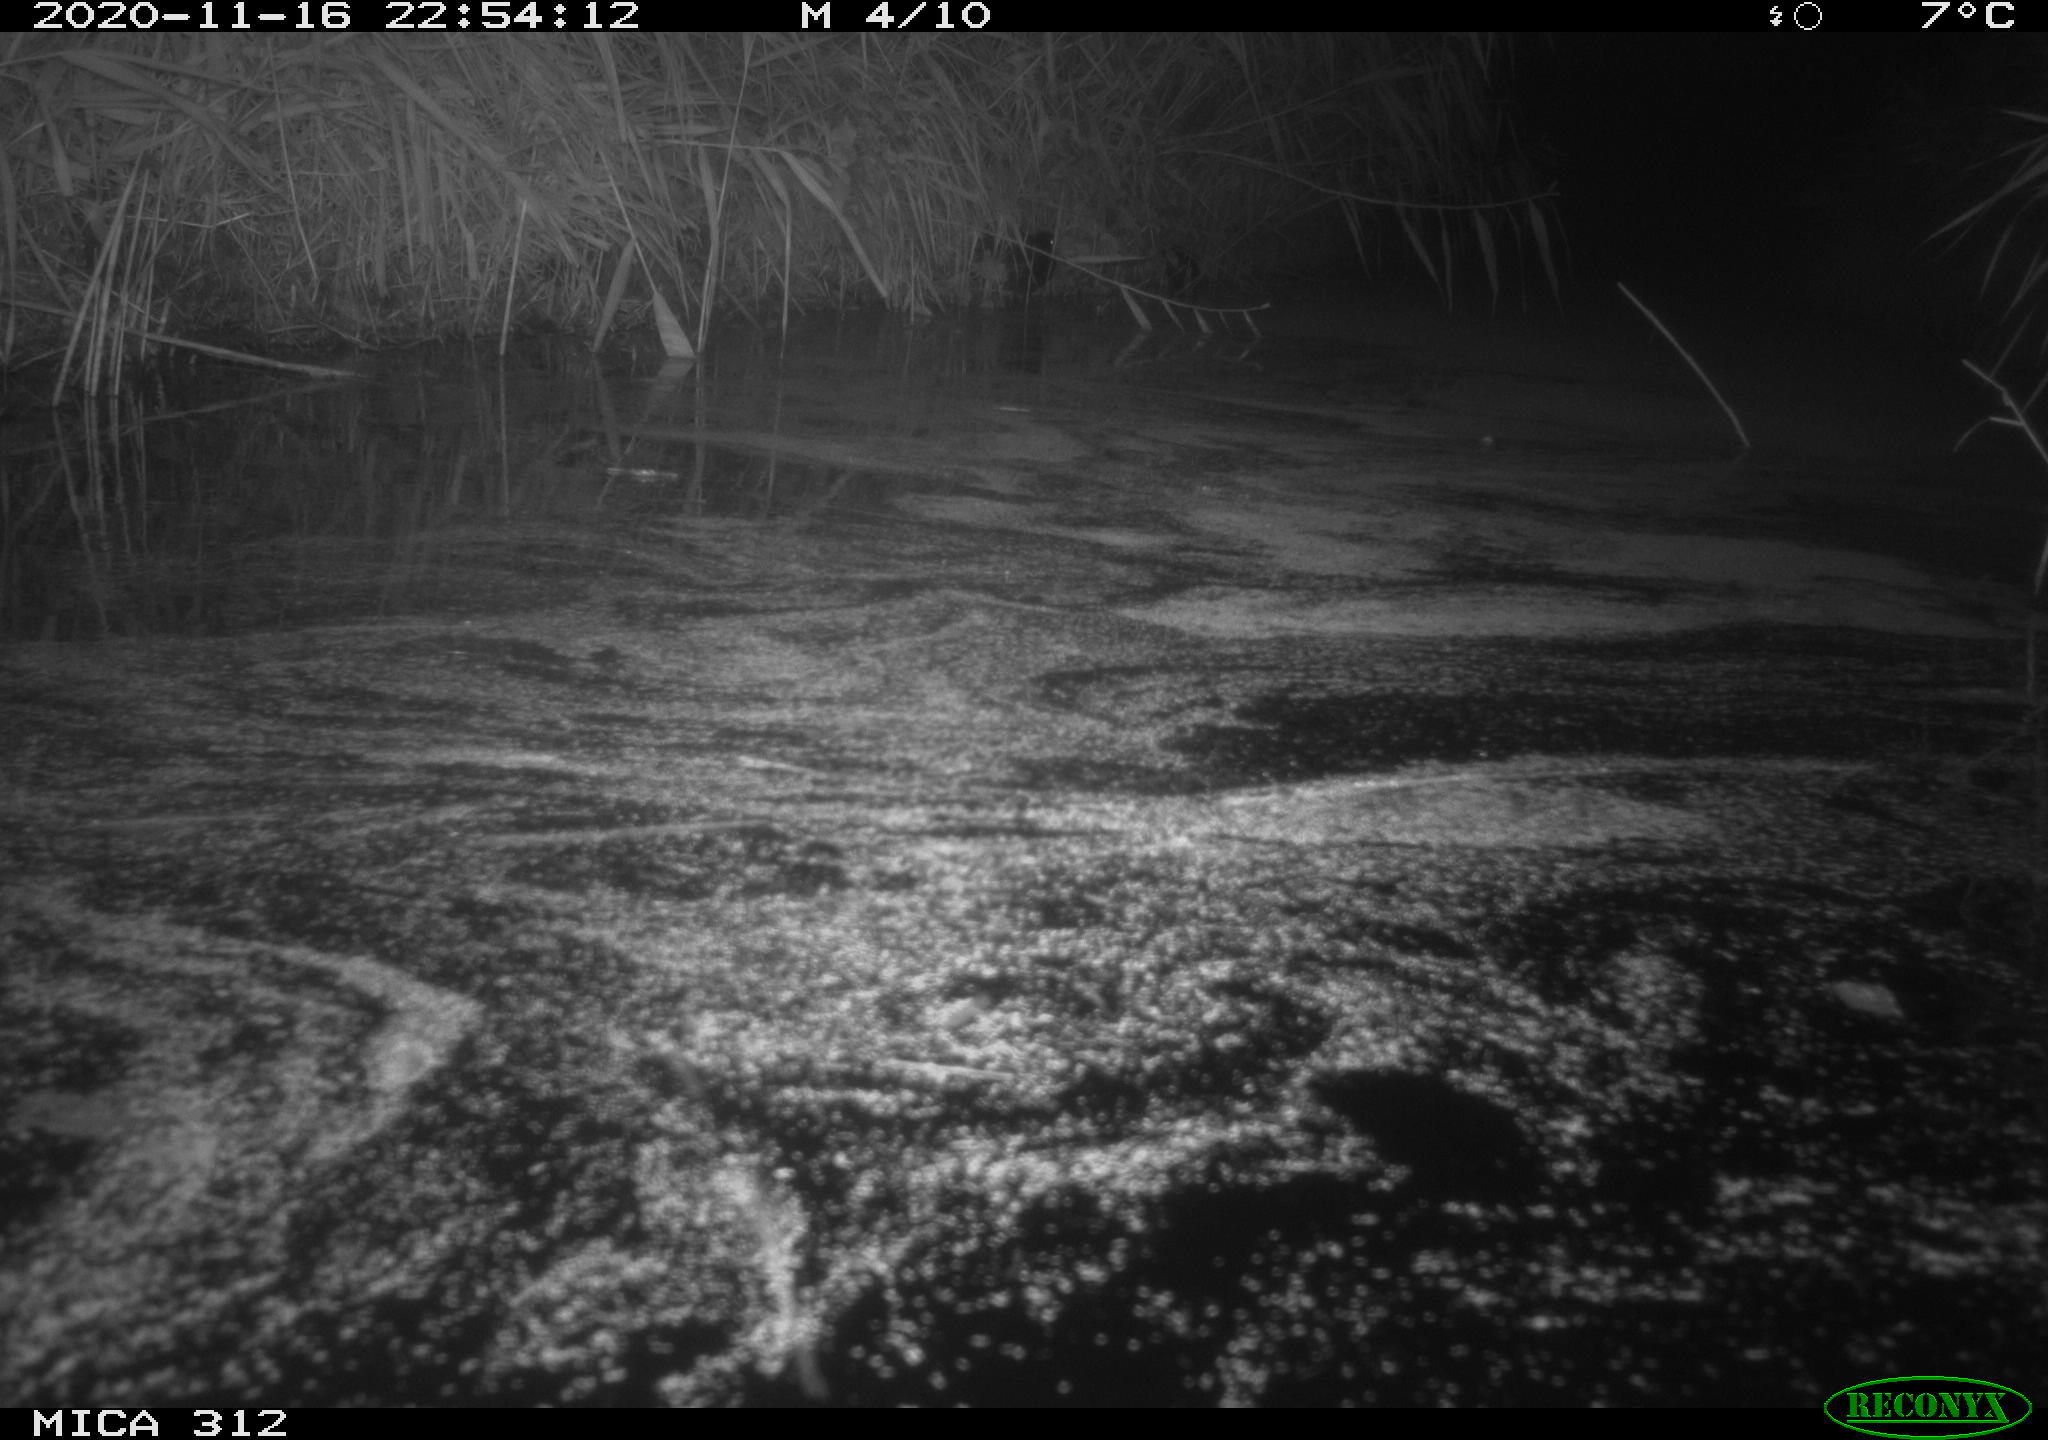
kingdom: Animalia
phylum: Chordata
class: Aves
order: Gruiformes
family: Rallidae
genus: Fulica
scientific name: Fulica atra
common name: Eurasian coot
